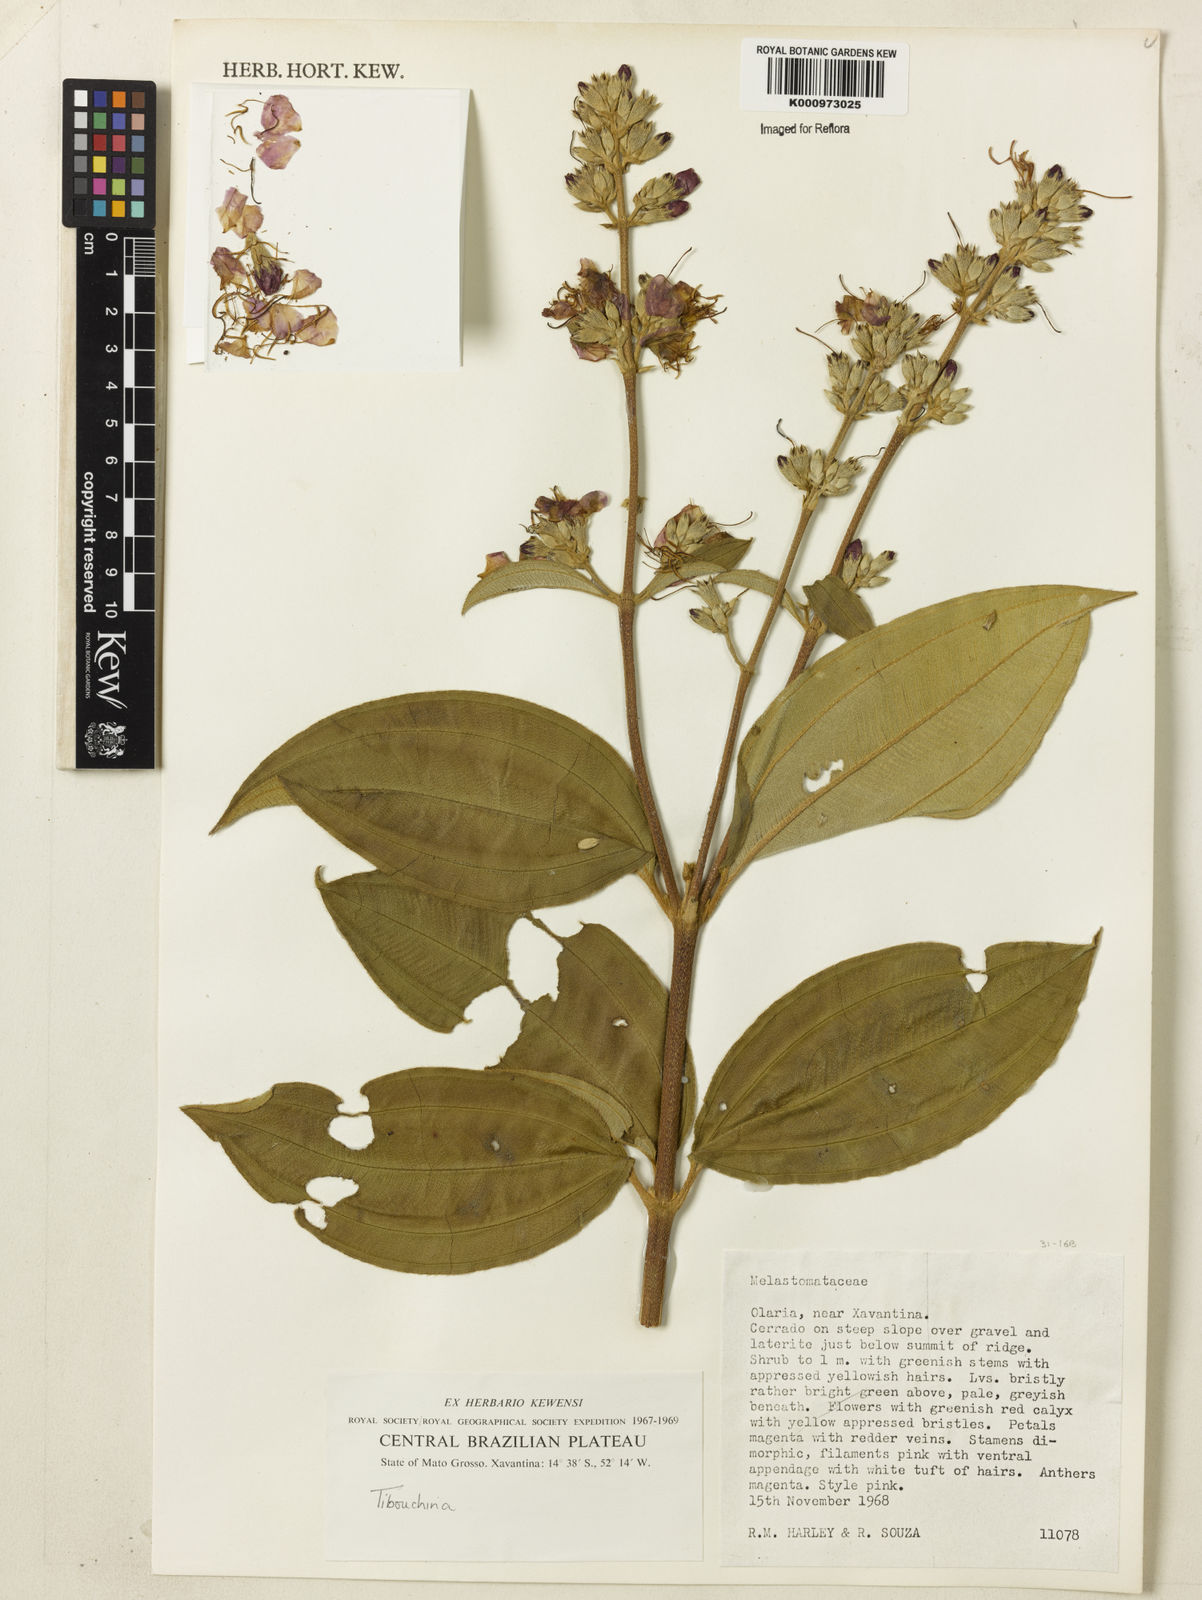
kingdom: Plantae
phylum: Tracheophyta
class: Magnoliopsida
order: Myrtales
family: Melastomataceae
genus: Tibouchina
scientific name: Tibouchina
